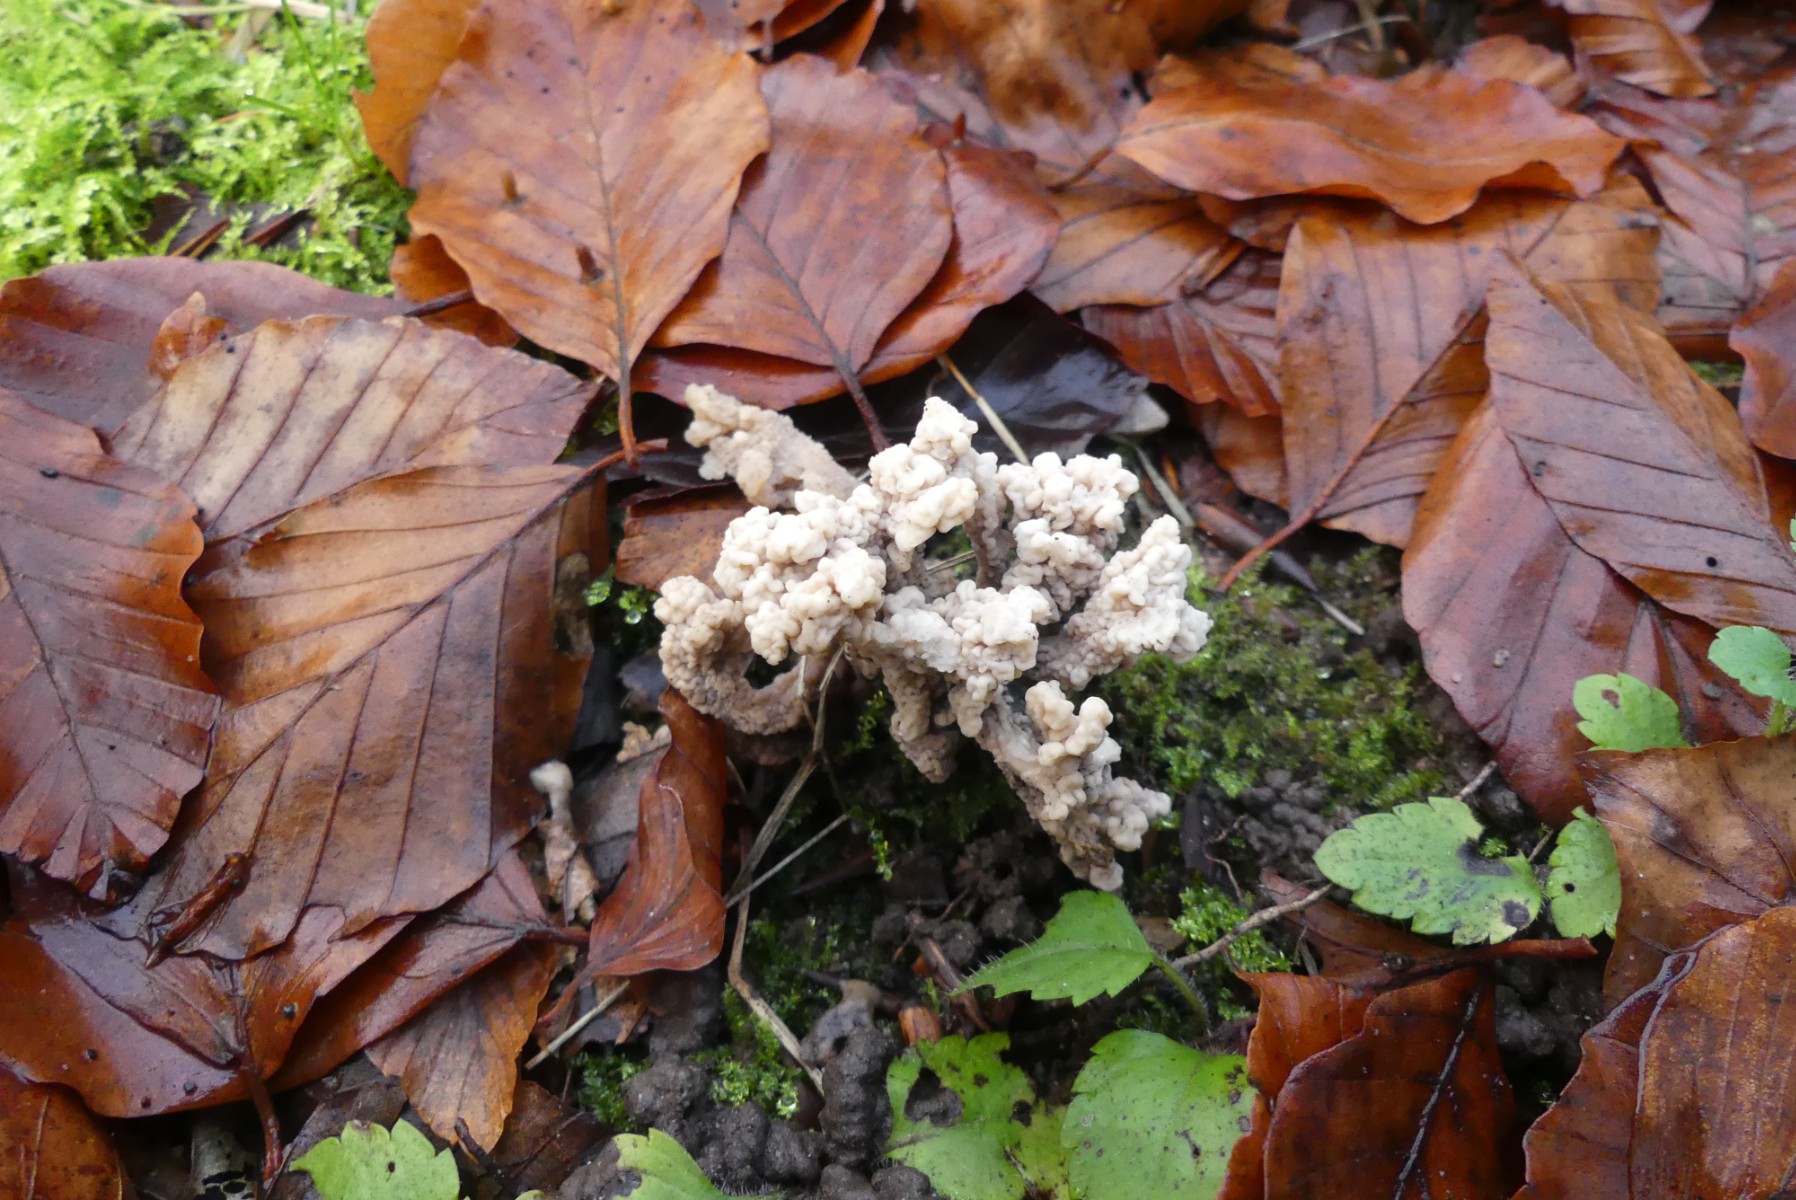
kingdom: Fungi
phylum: Basidiomycota
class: Agaricomycetes
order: Cantharellales
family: Hydnaceae
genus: Clavulina
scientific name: Clavulina
